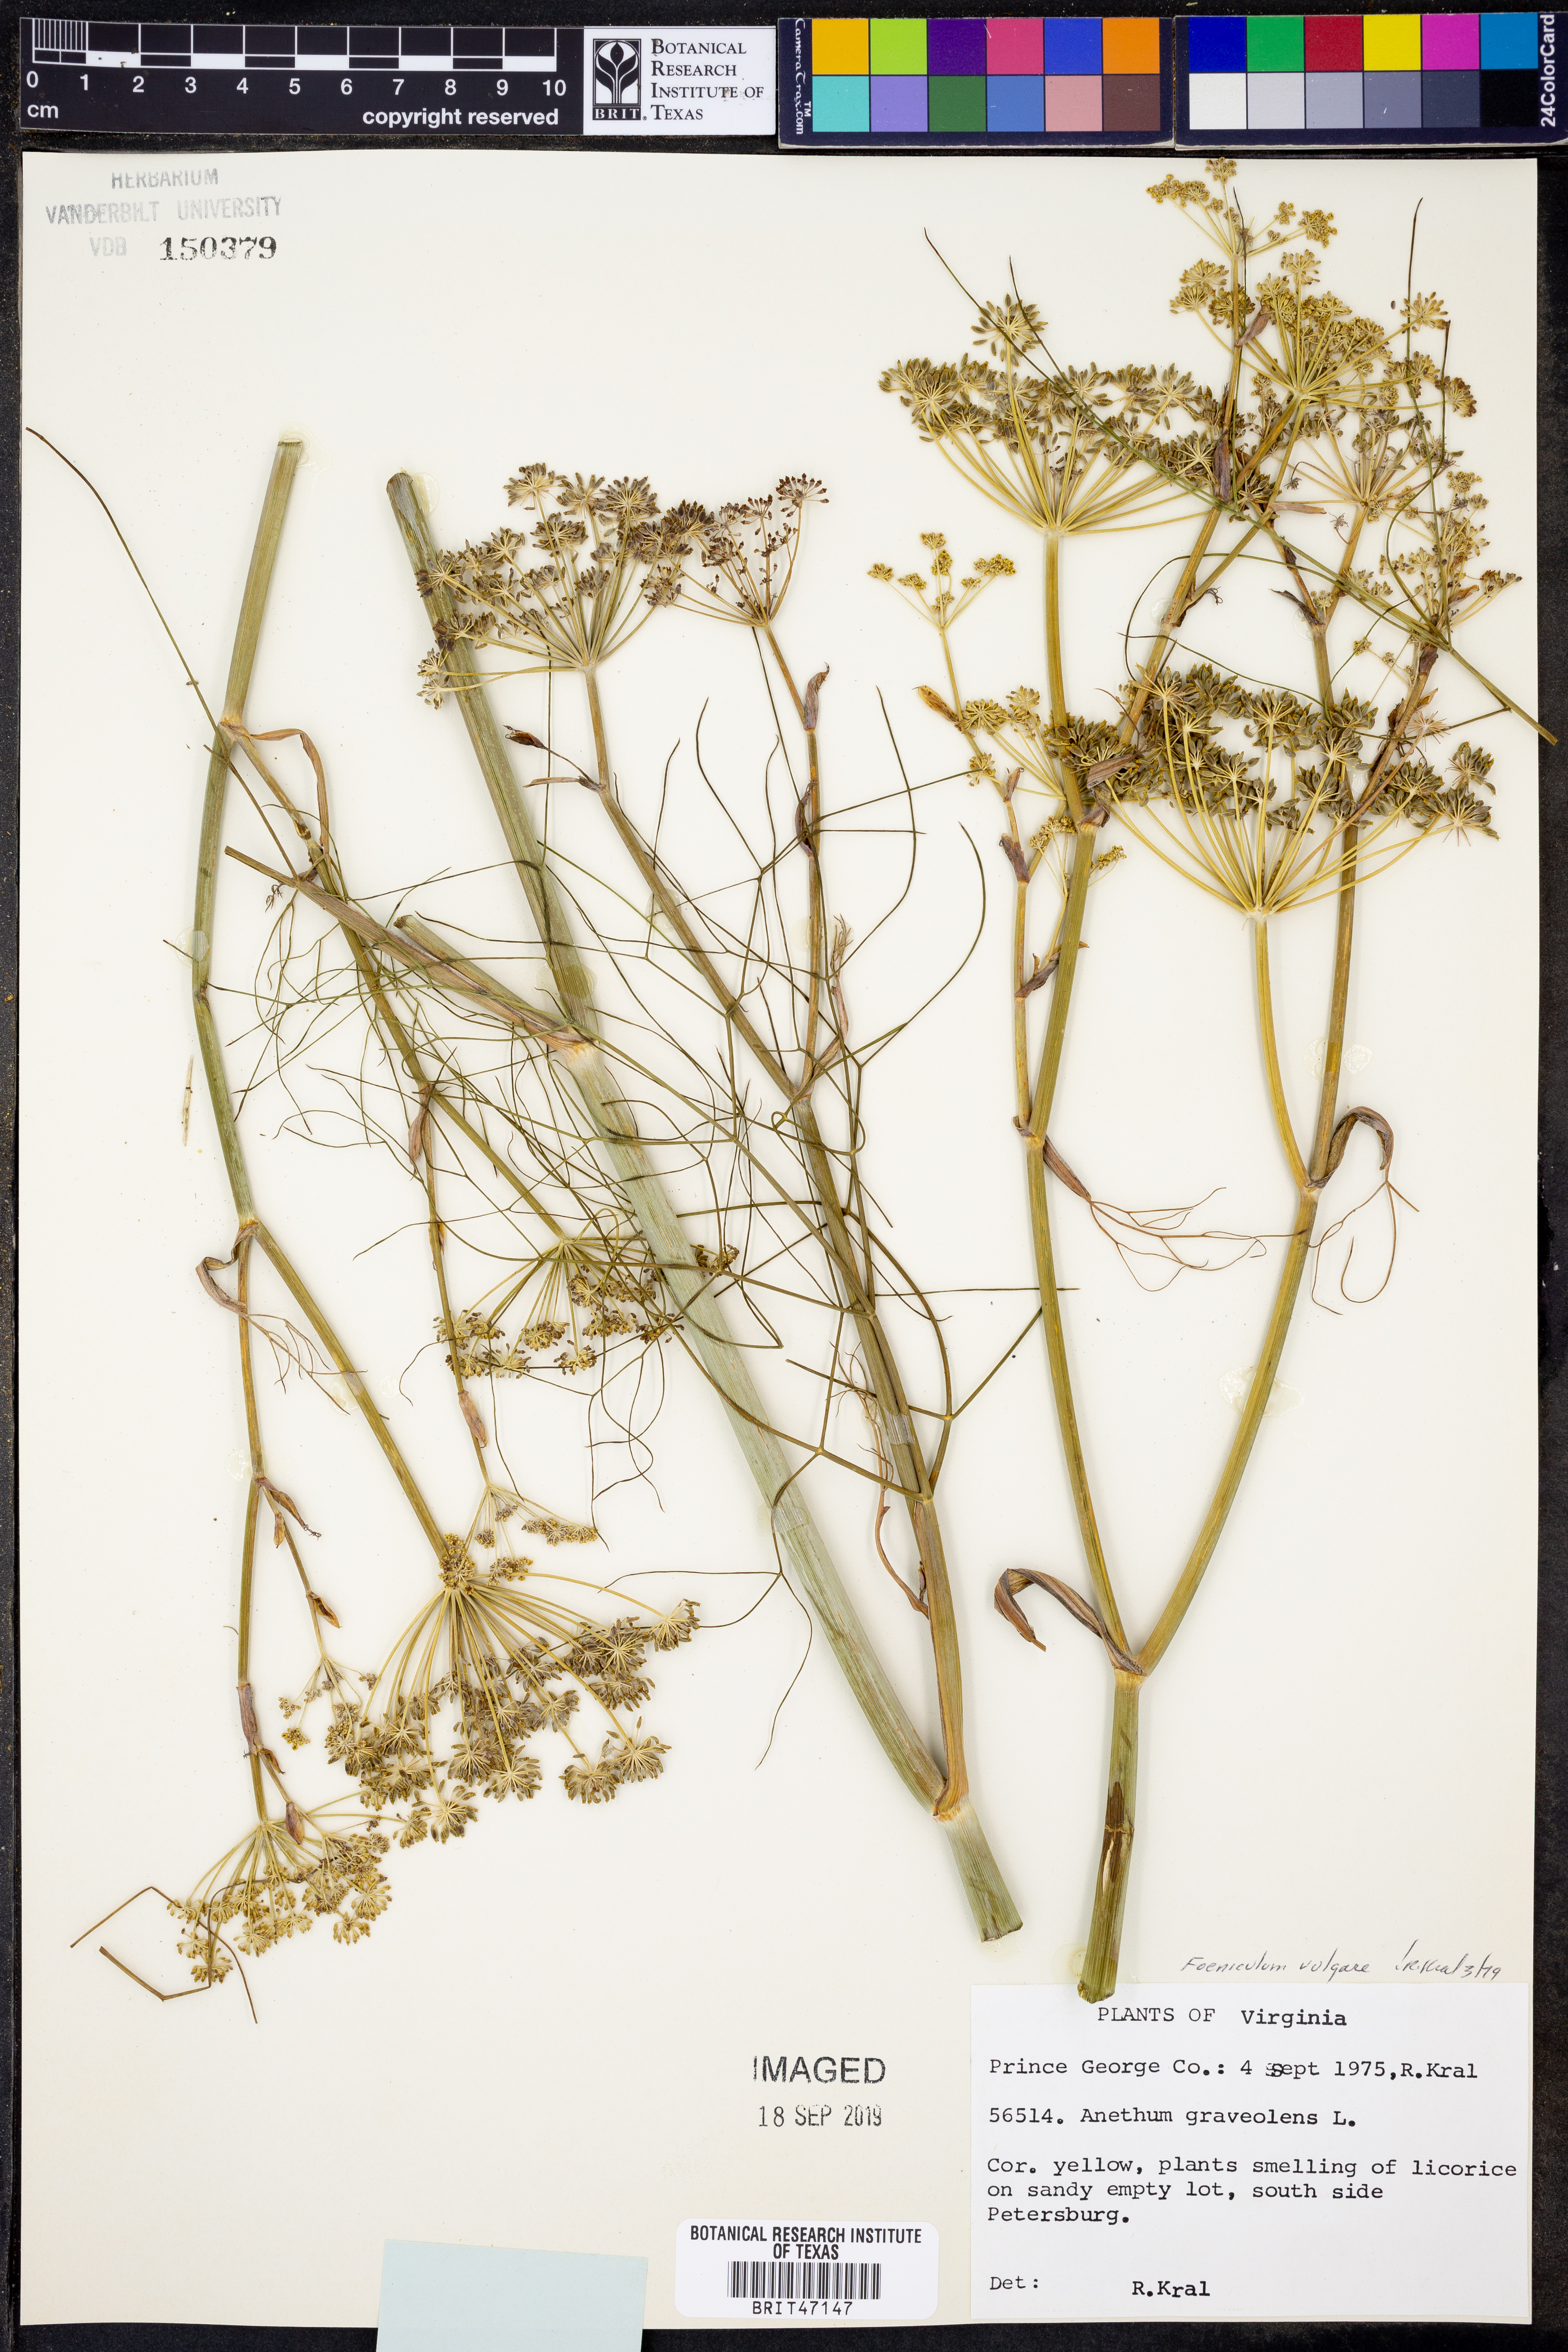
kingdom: Plantae
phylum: Tracheophyta
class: Magnoliopsida
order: Apiales
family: Apiaceae
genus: Anethum
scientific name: Anethum graveolens
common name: Dill
